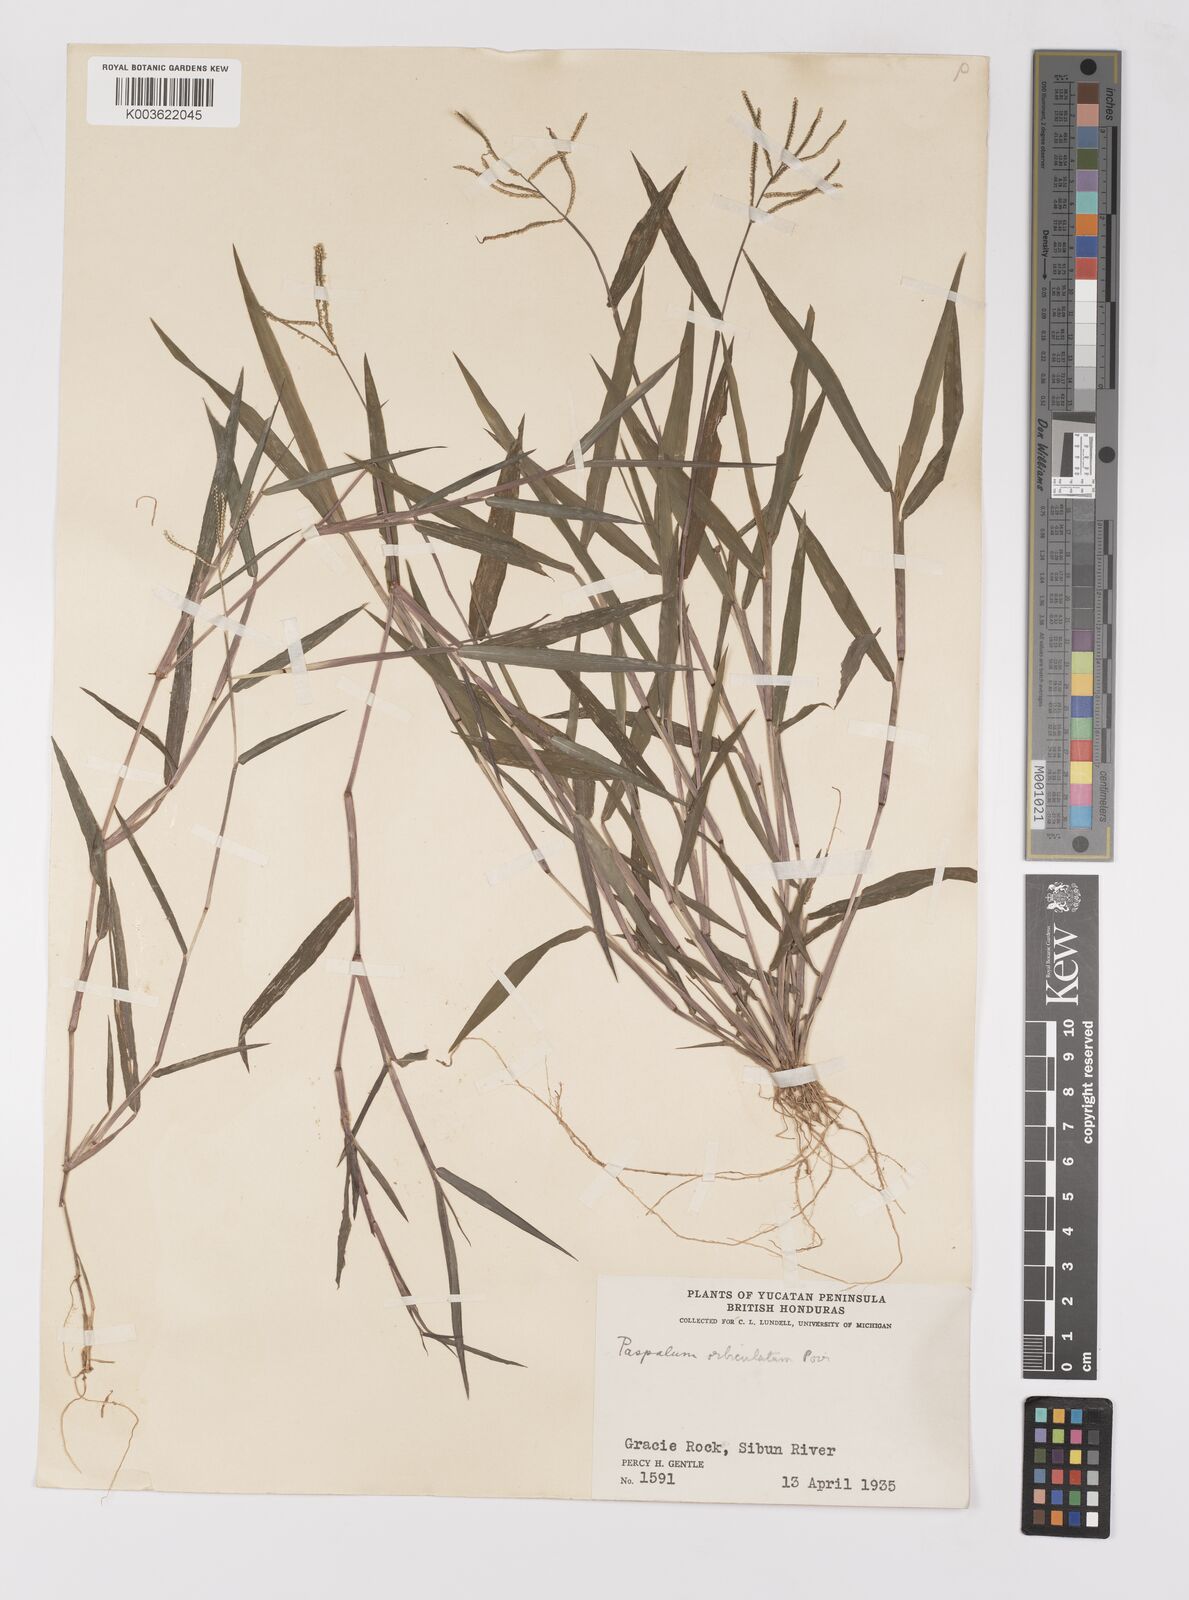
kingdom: Plantae
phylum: Tracheophyta
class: Liliopsida
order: Poales
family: Poaceae
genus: Paspalum
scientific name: Paspalum orbiculatum
